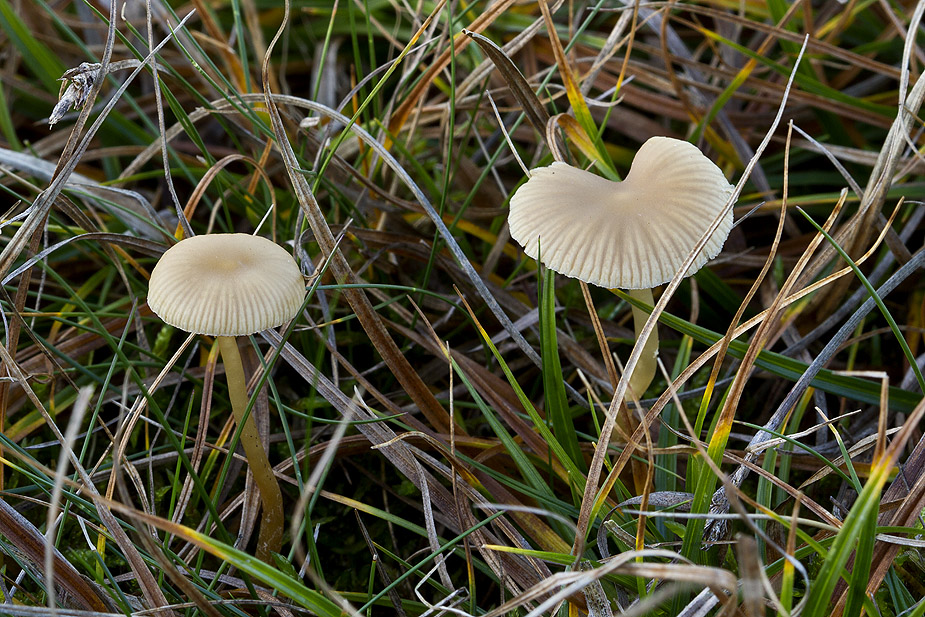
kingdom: Fungi
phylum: Basidiomycota
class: Agaricomycetes
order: Agaricales
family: Hymenogastraceae
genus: Galerina
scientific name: Galerina mniophila
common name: olivengul hjelmhat
